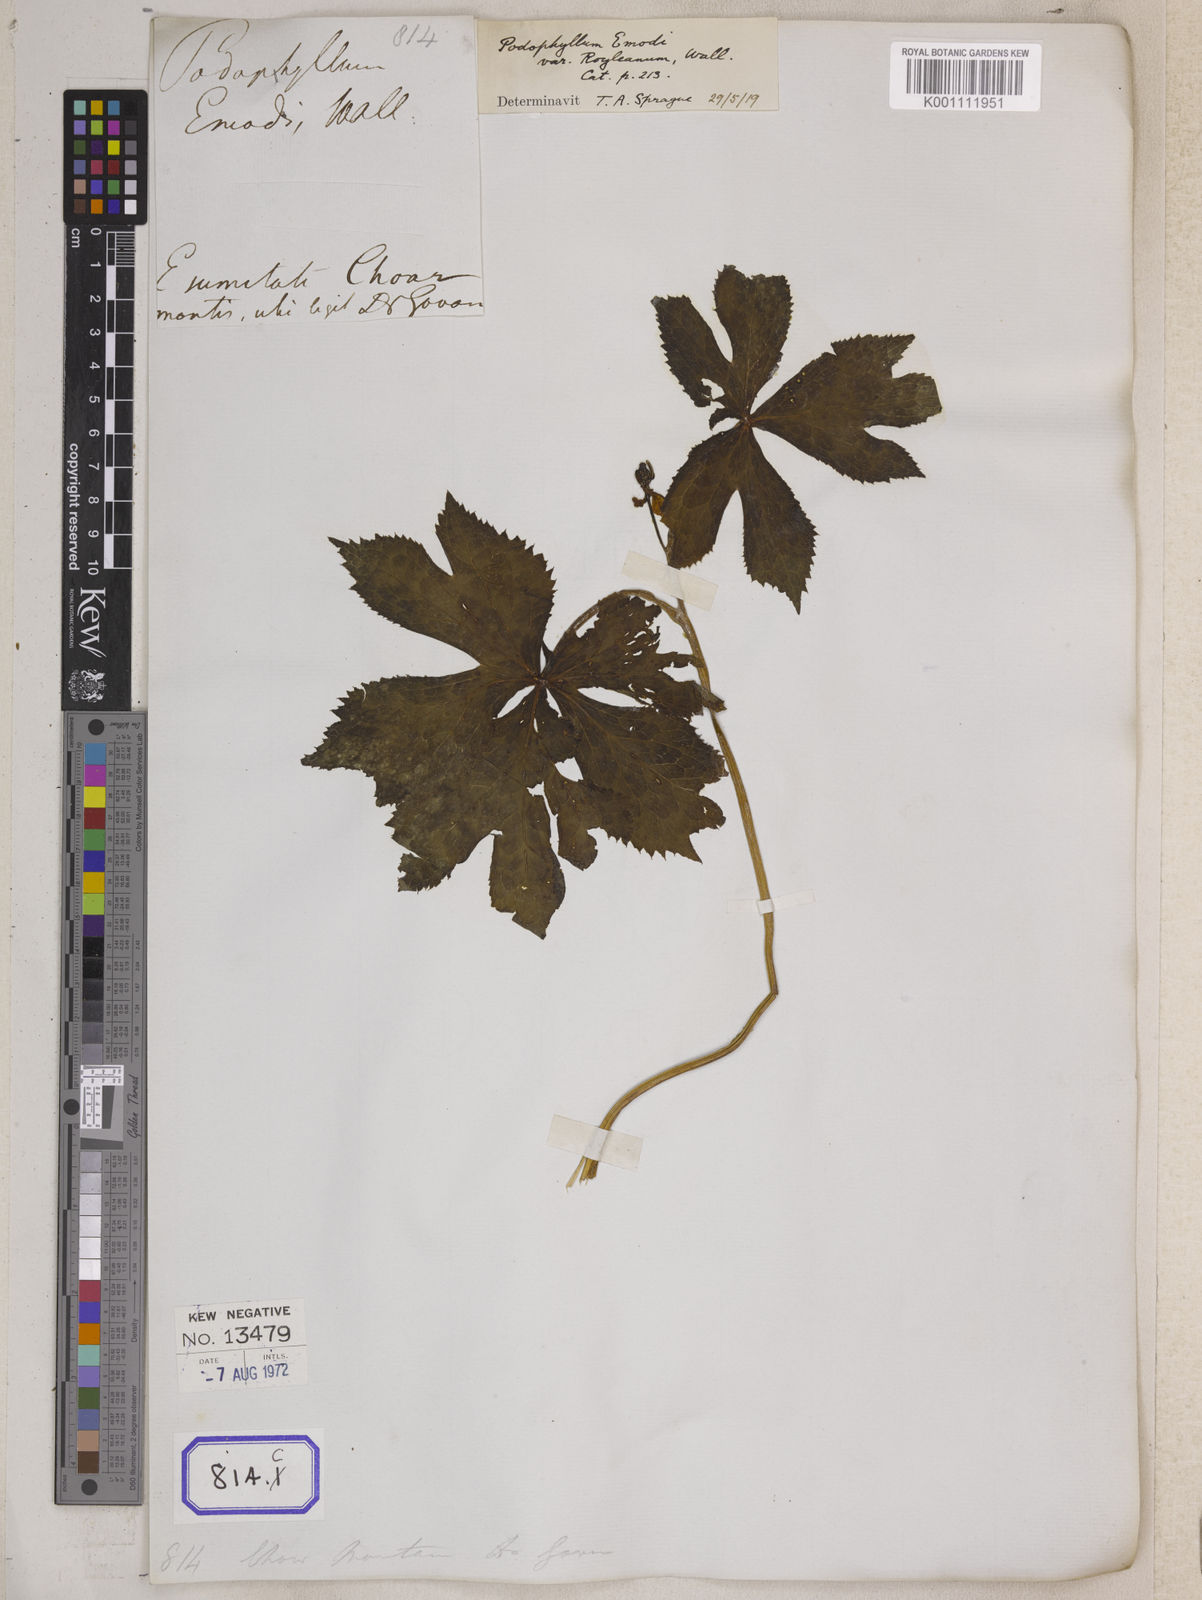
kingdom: Plantae
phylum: Tracheophyta
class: Magnoliopsida
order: Ranunculales
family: Berberidaceae
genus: Podophyllum
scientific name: Podophyllum
